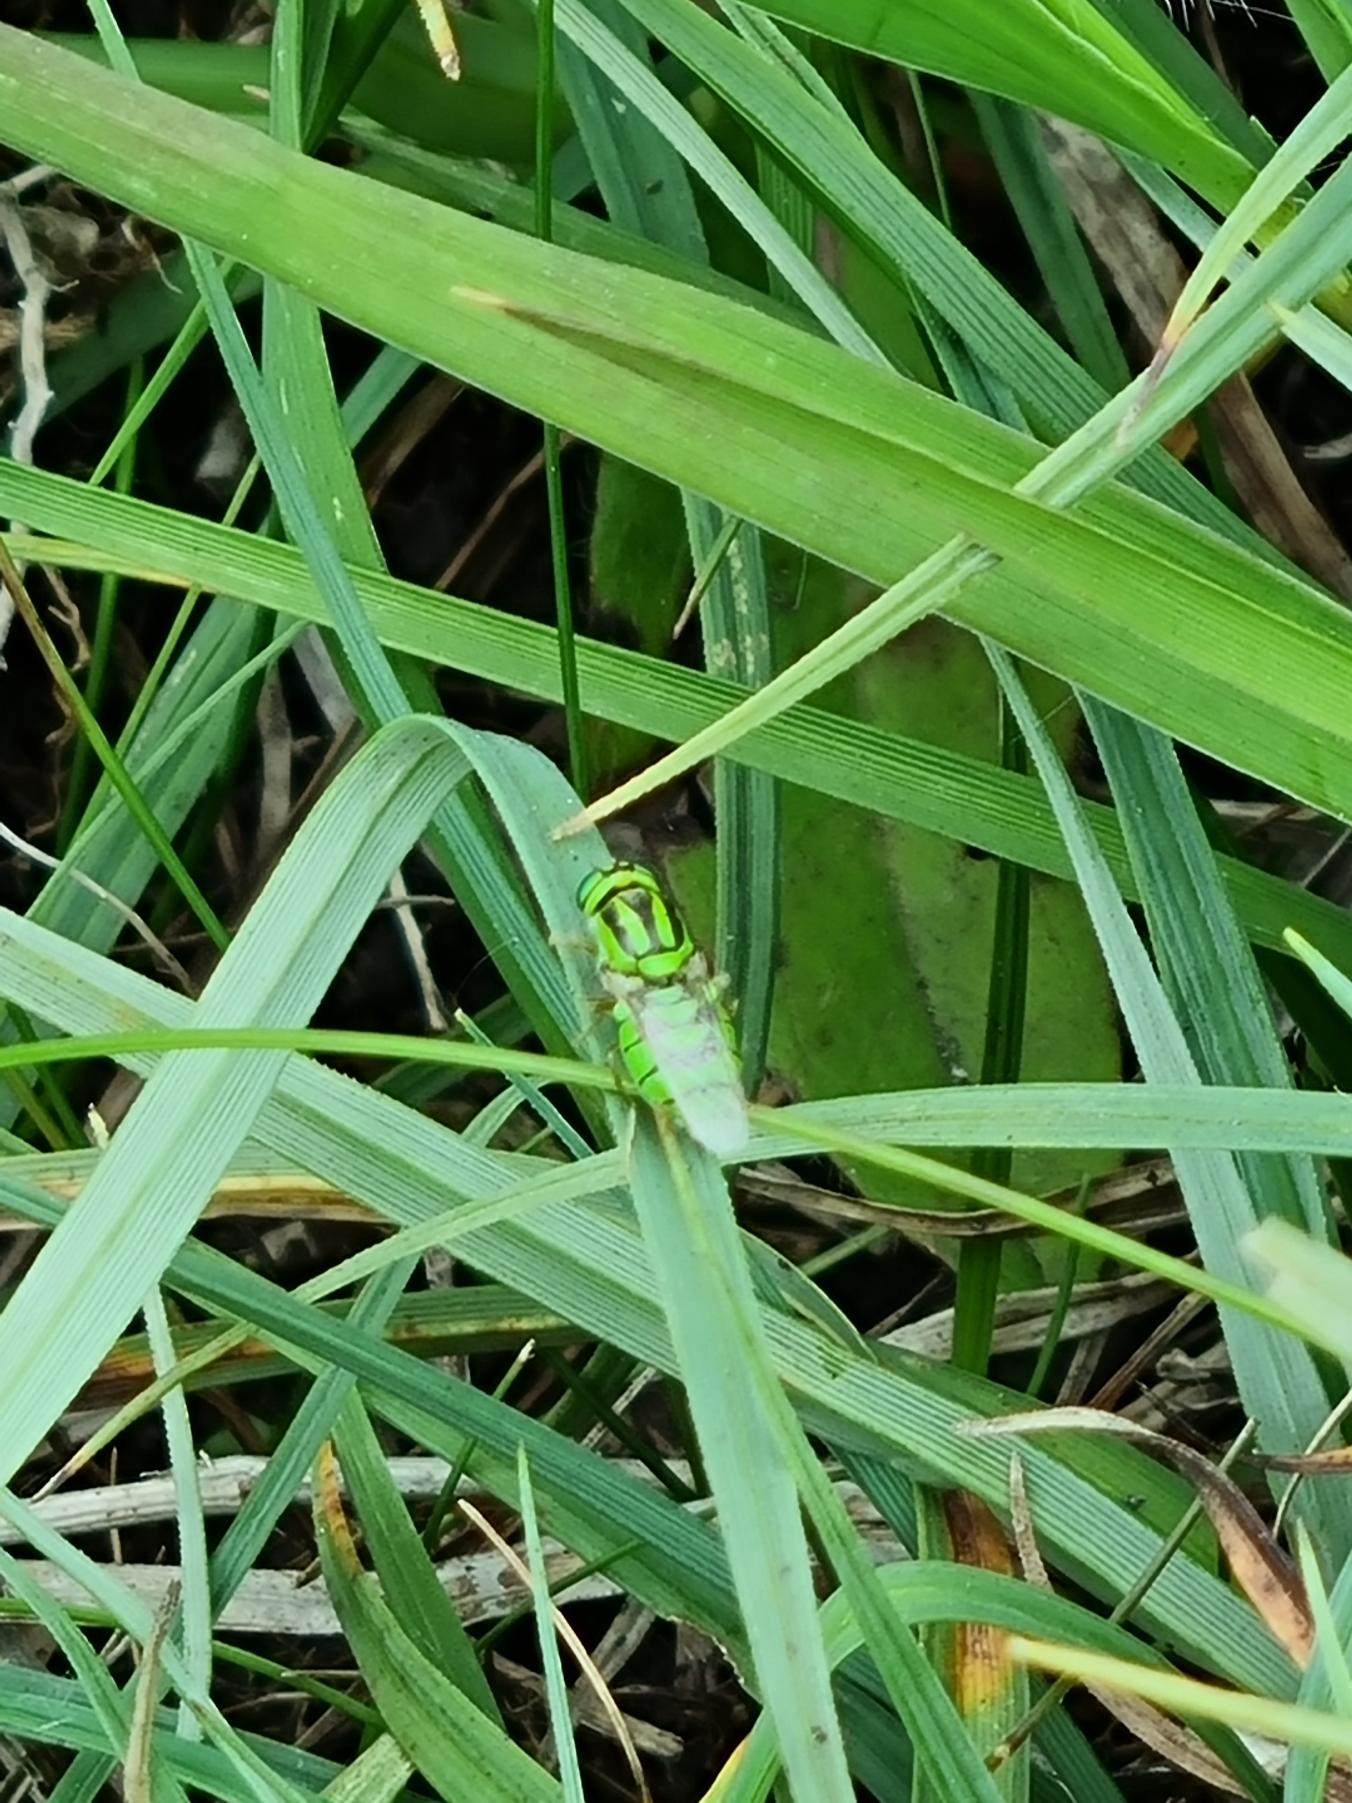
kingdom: Animalia
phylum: Arthropoda
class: Insecta
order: Diptera
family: Stratiomyidae
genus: Oxycera
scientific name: Oxycera trilineata
